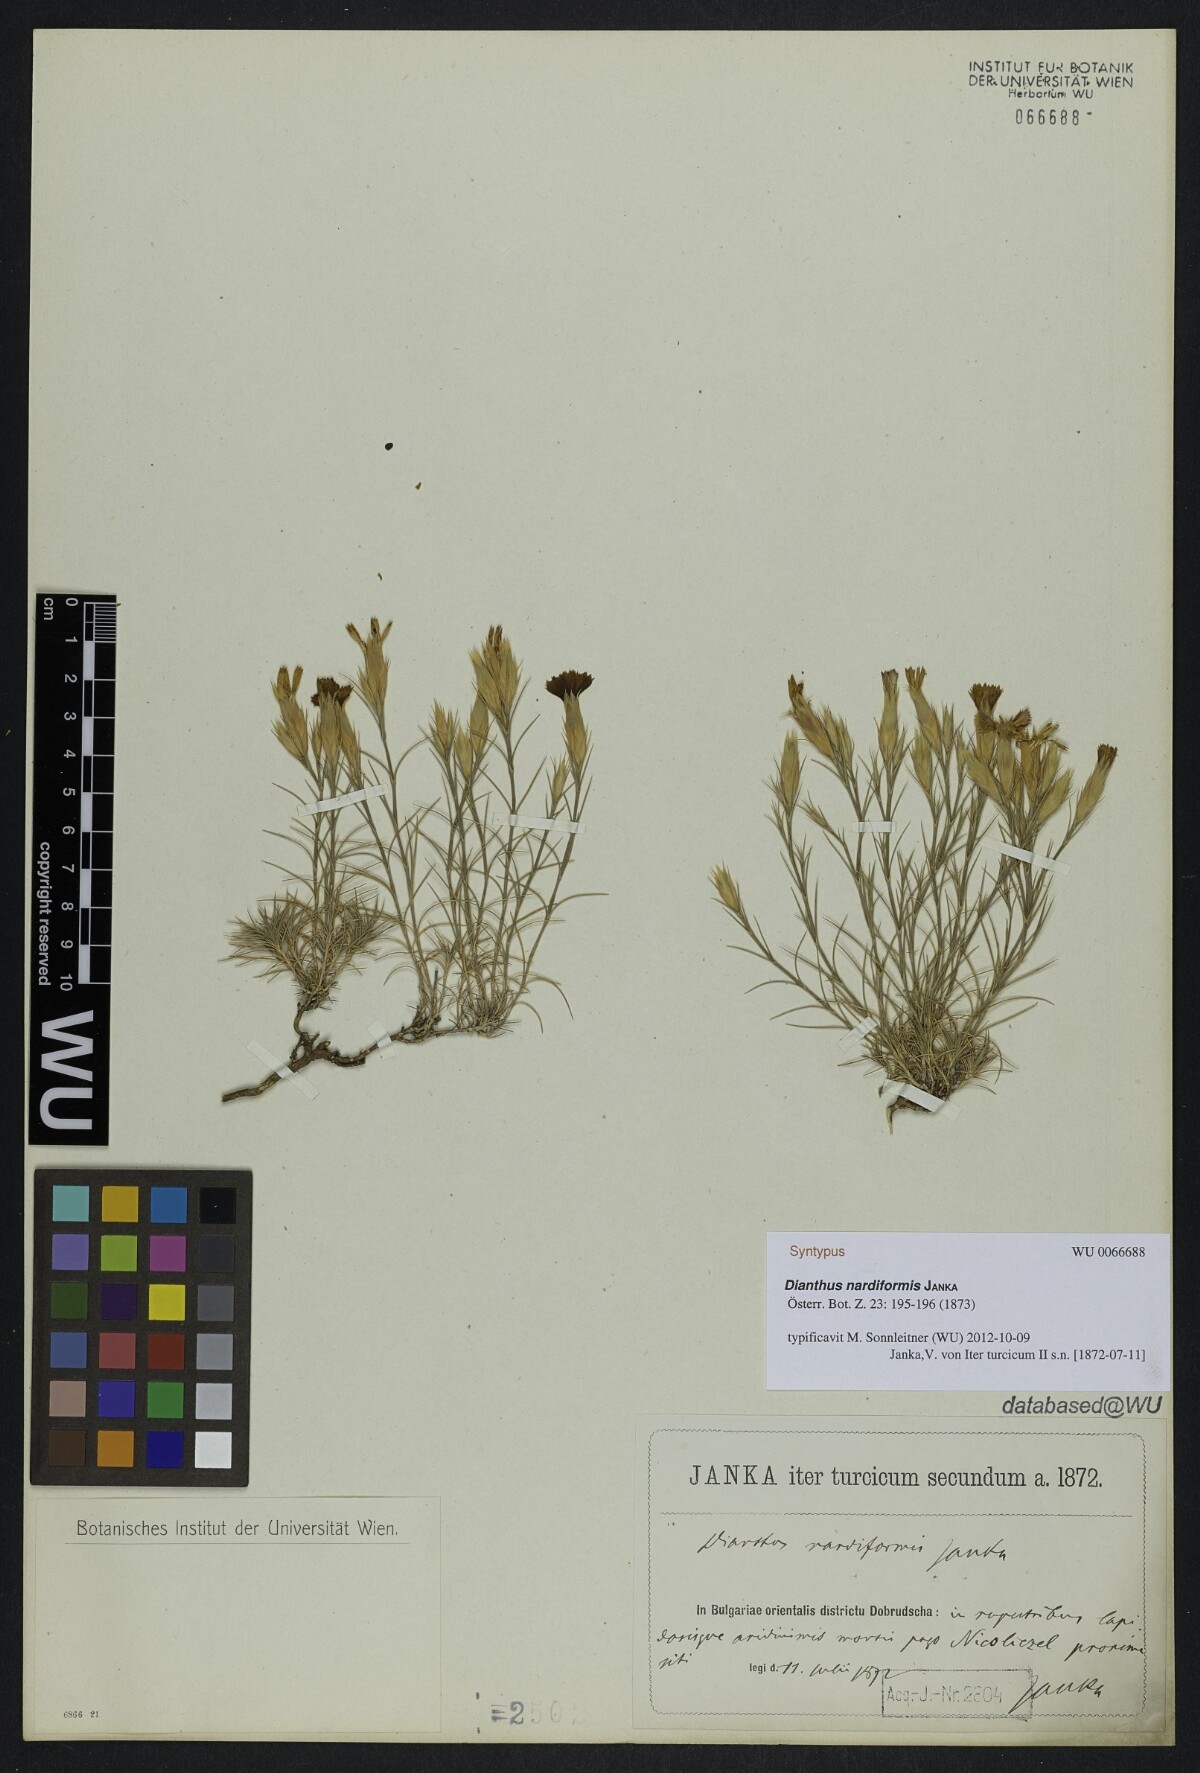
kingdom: Plantae
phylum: Tracheophyta
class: Magnoliopsida
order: Caryophyllales
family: Caryophyllaceae
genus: Dianthus
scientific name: Dianthus nardiformis
